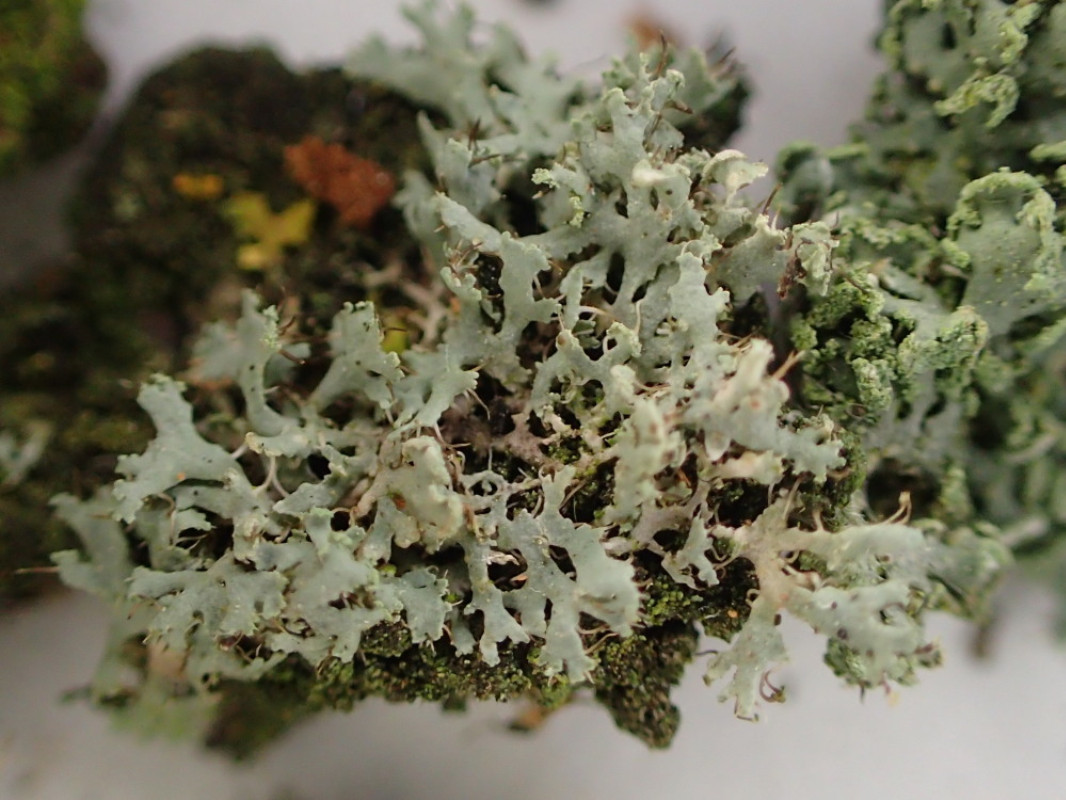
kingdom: Fungi
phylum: Ascomycota
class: Lecanoromycetes
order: Caliciales
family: Physciaceae
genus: Physcia
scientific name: Physcia tenella
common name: spæd rosetlav
